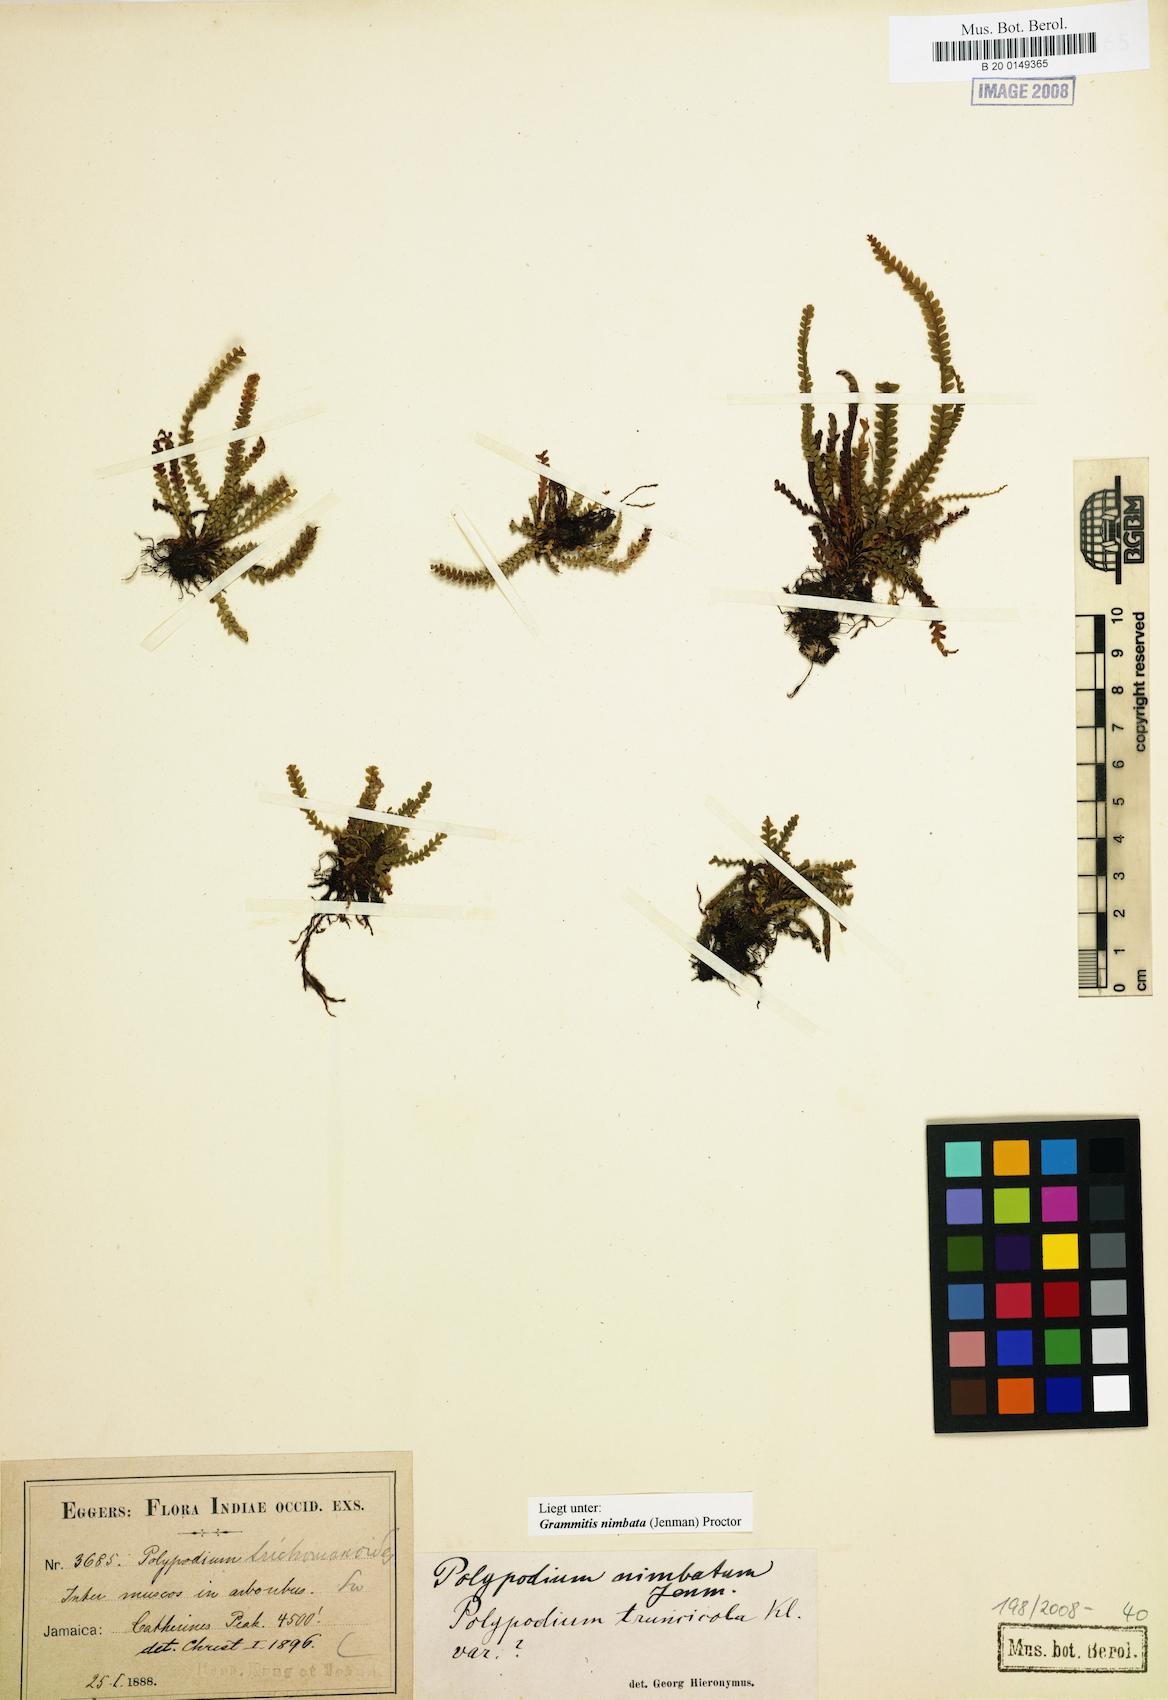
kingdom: Plantae
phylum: Tracheophyta
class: Polypodiopsida
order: Polypodiales
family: Polypodiaceae
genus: Moranopteris
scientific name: Moranopteris nimbata
